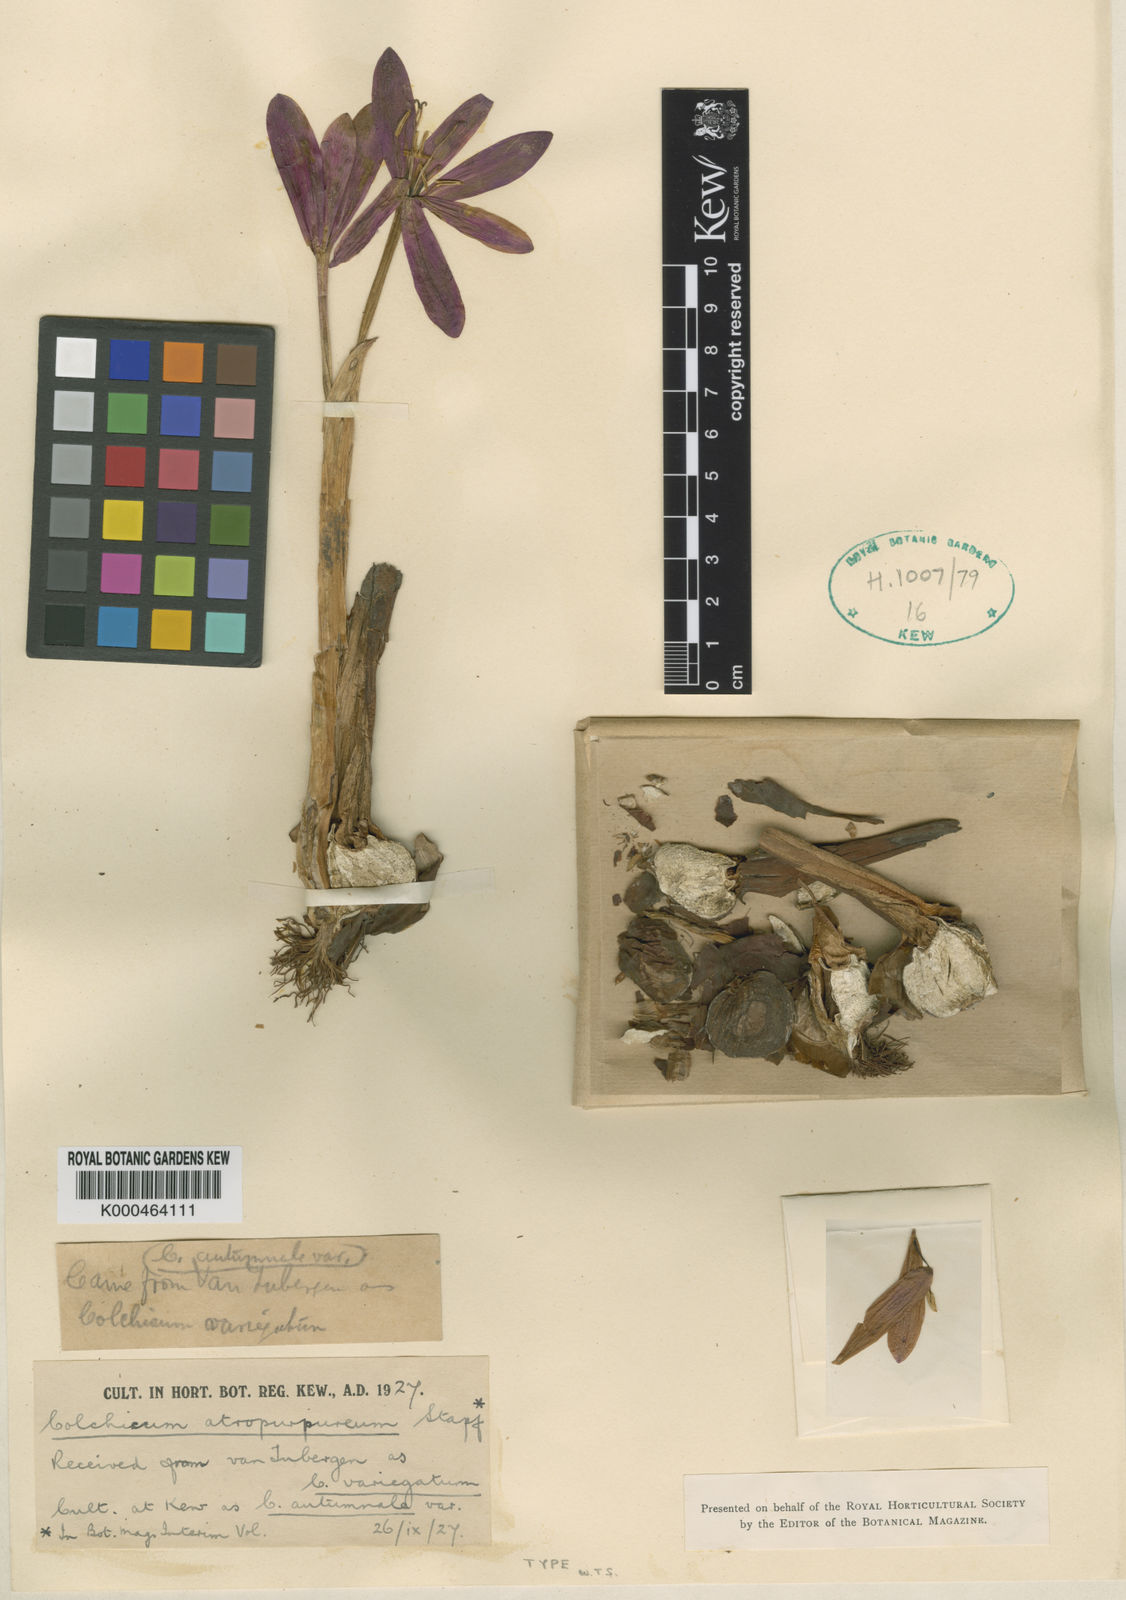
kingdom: Plantae
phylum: Tracheophyta
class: Liliopsida
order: Liliales
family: Colchicaceae
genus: Colchicum
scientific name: Colchicum atropurpureum
